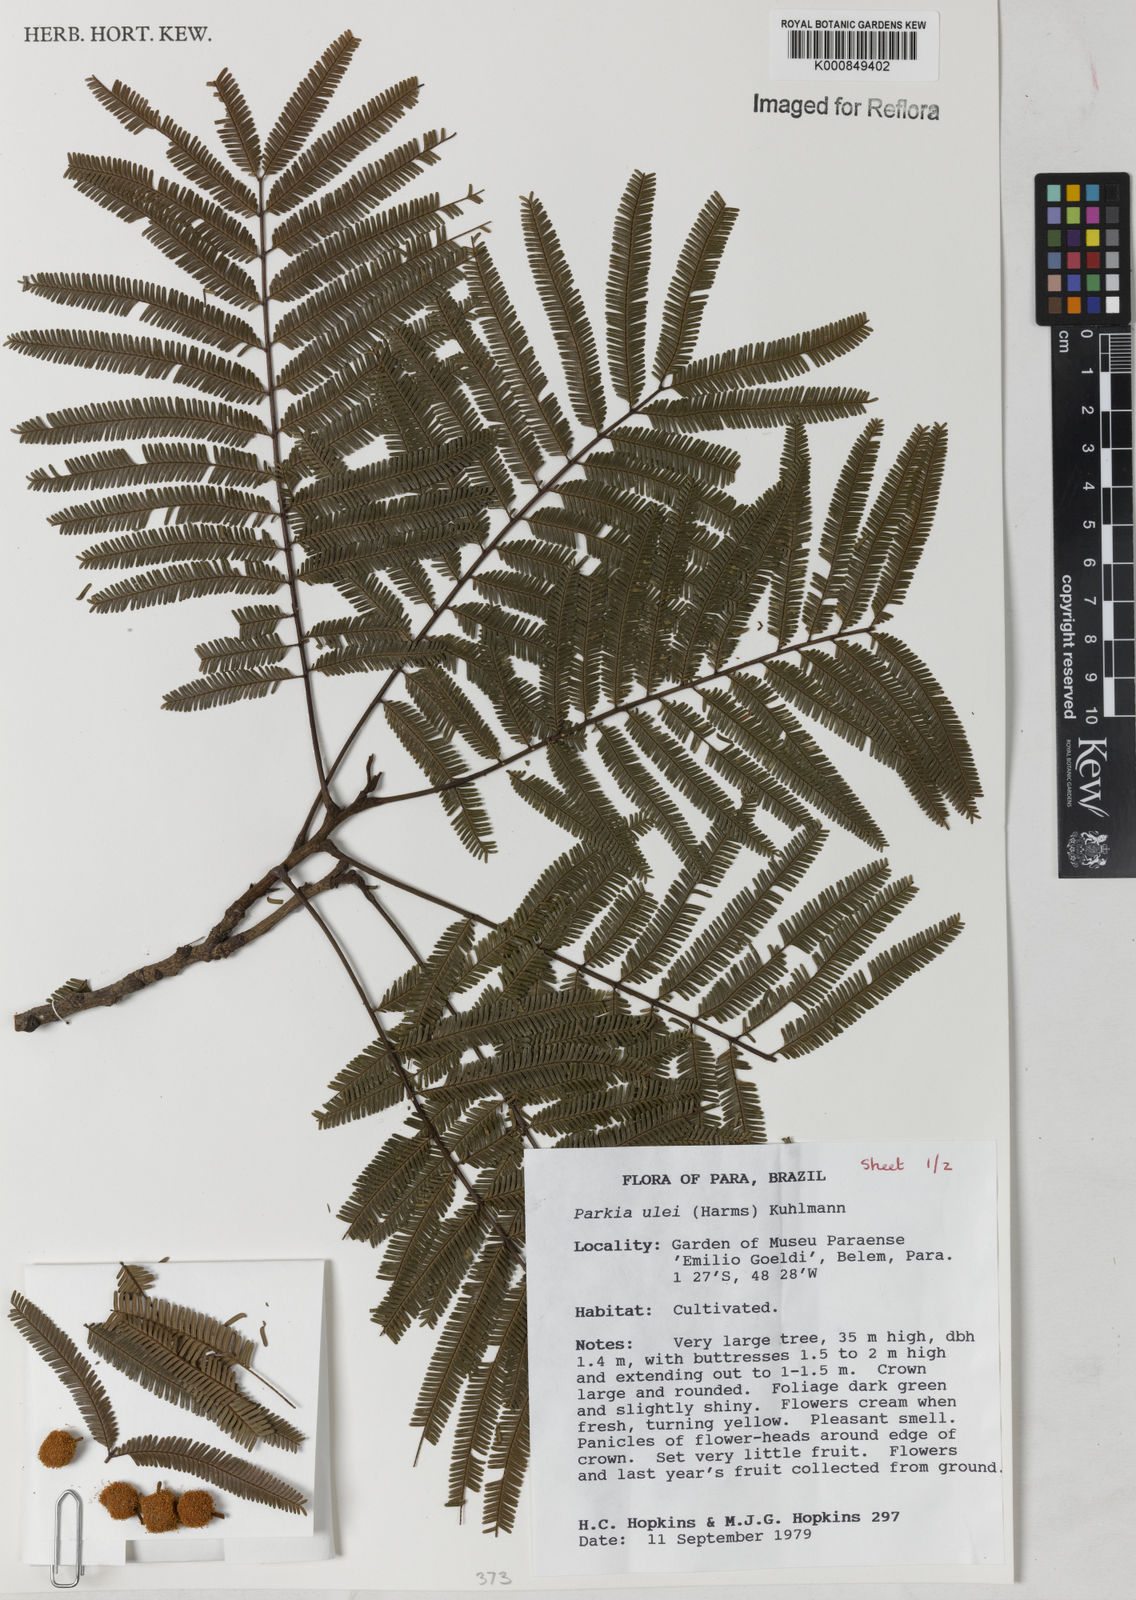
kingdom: Plantae
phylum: Tracheophyta
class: Magnoliopsida
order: Fabales
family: Fabaceae
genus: Parkia
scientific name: Parkia ulei
